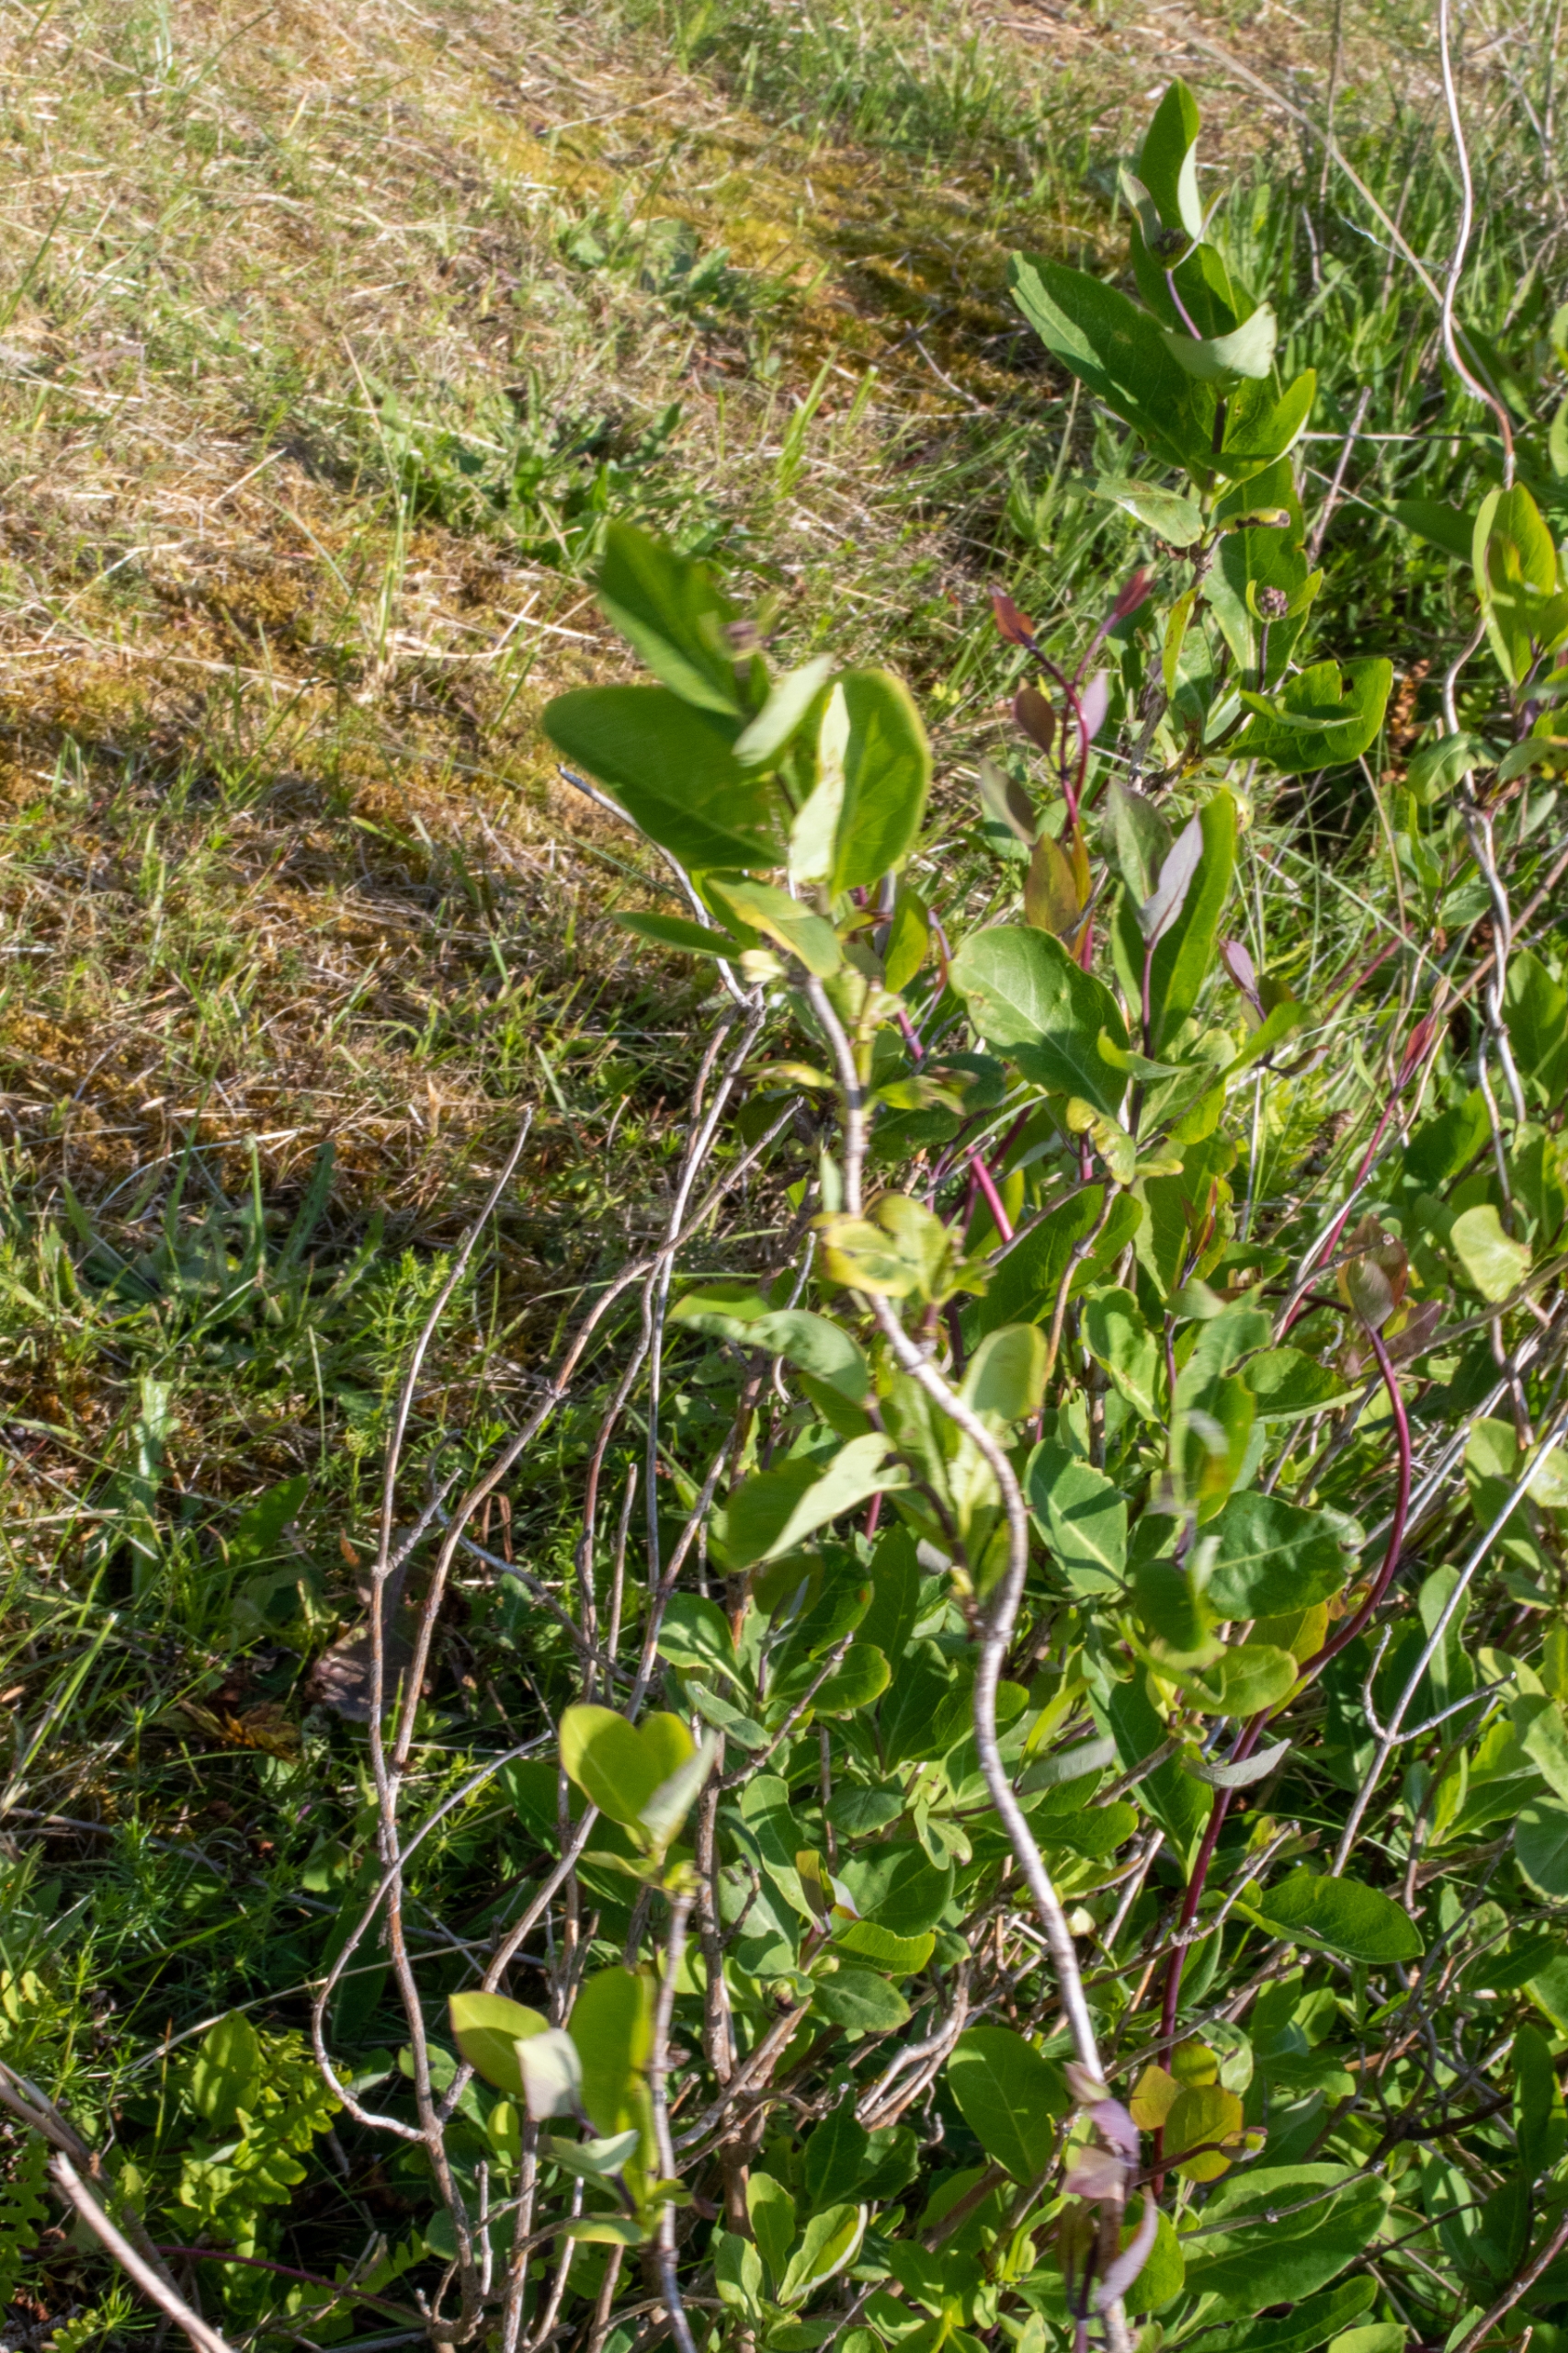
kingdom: Plantae
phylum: Tracheophyta
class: Magnoliopsida
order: Dipsacales
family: Caprifoliaceae
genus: Lonicera
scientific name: Lonicera periclymenum
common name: Almindelig gedeblad
